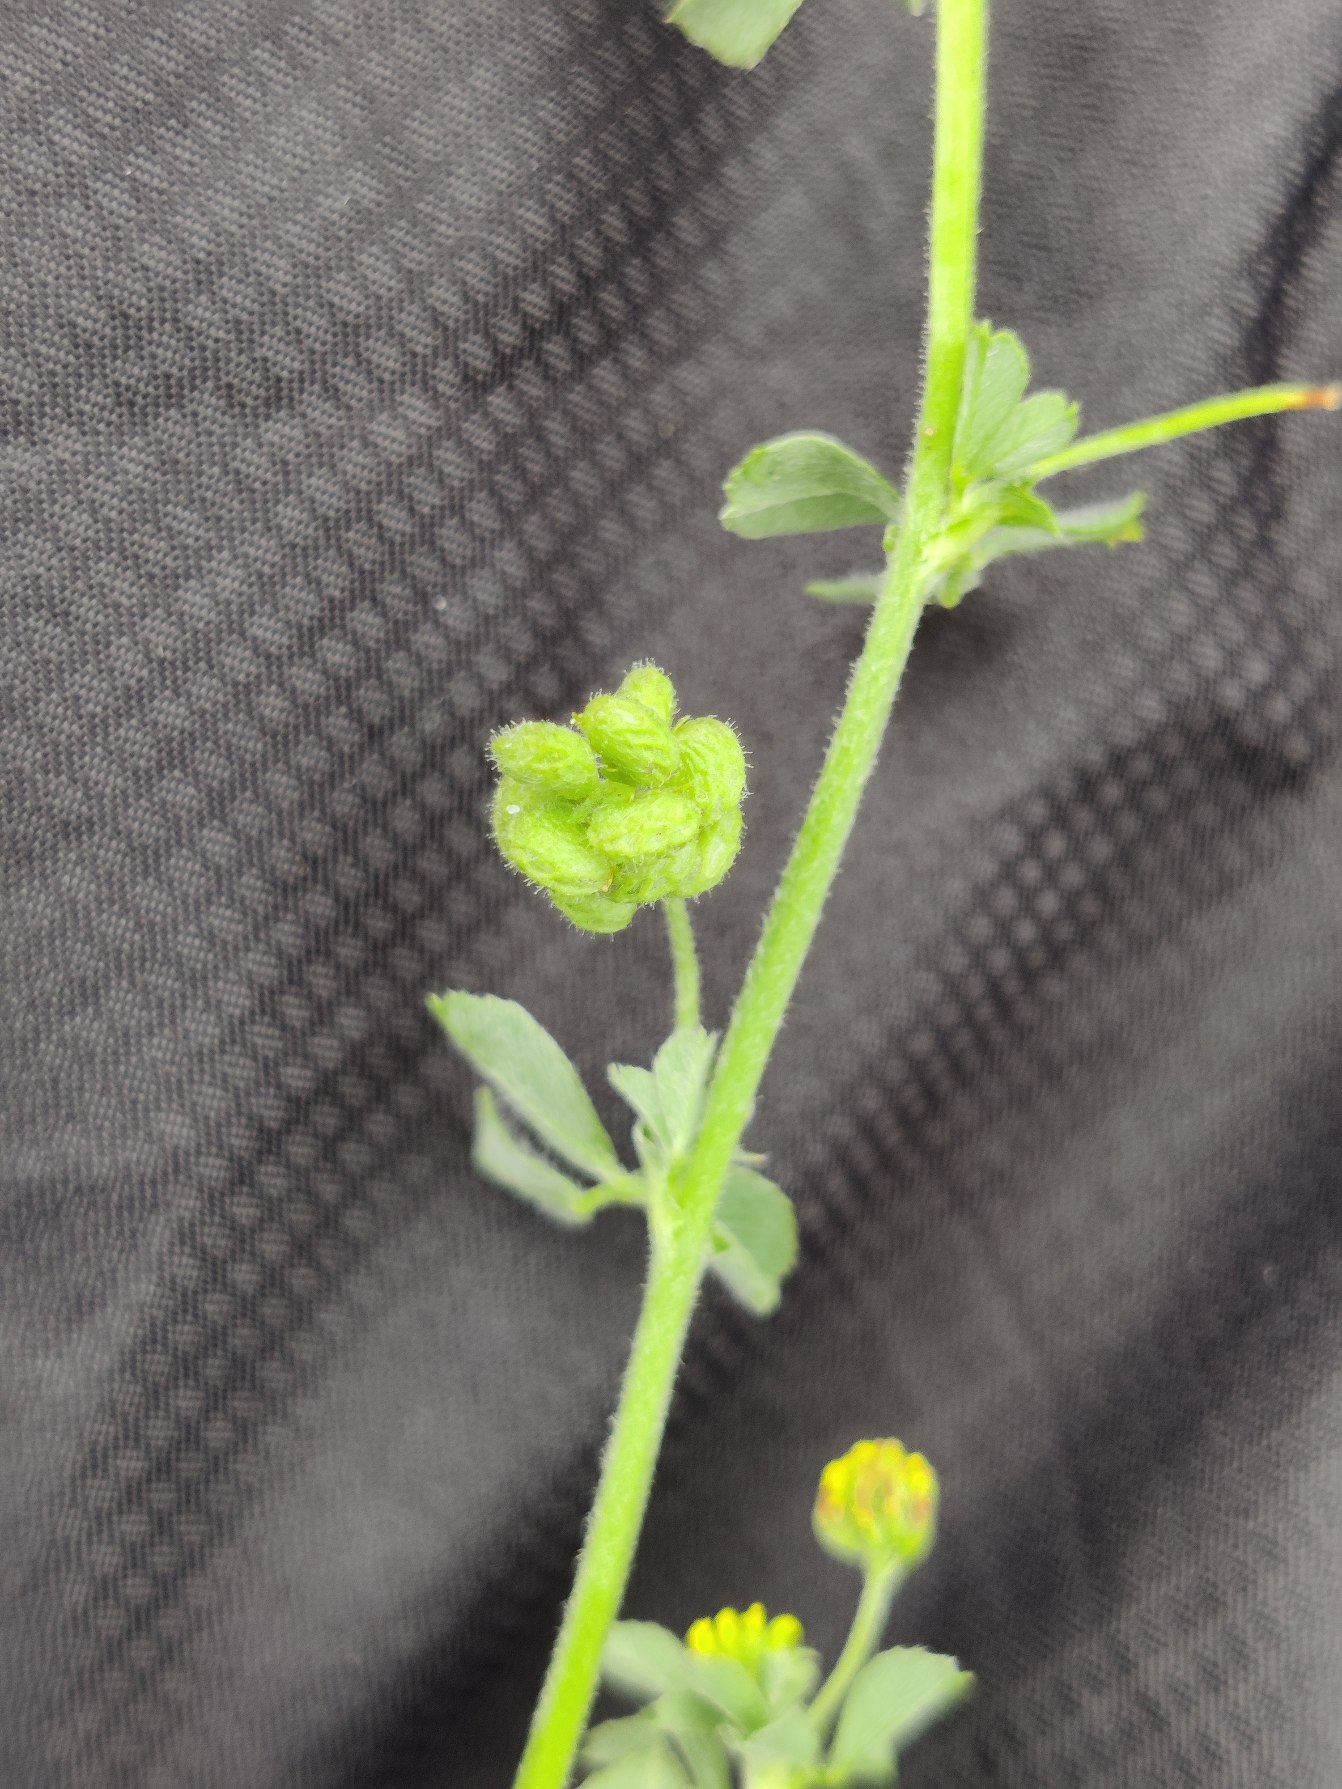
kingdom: Plantae
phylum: Tracheophyta
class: Magnoliopsida
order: Fabales
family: Fabaceae
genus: Medicago
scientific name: Medicago lupulina
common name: Humle-sneglebælg
